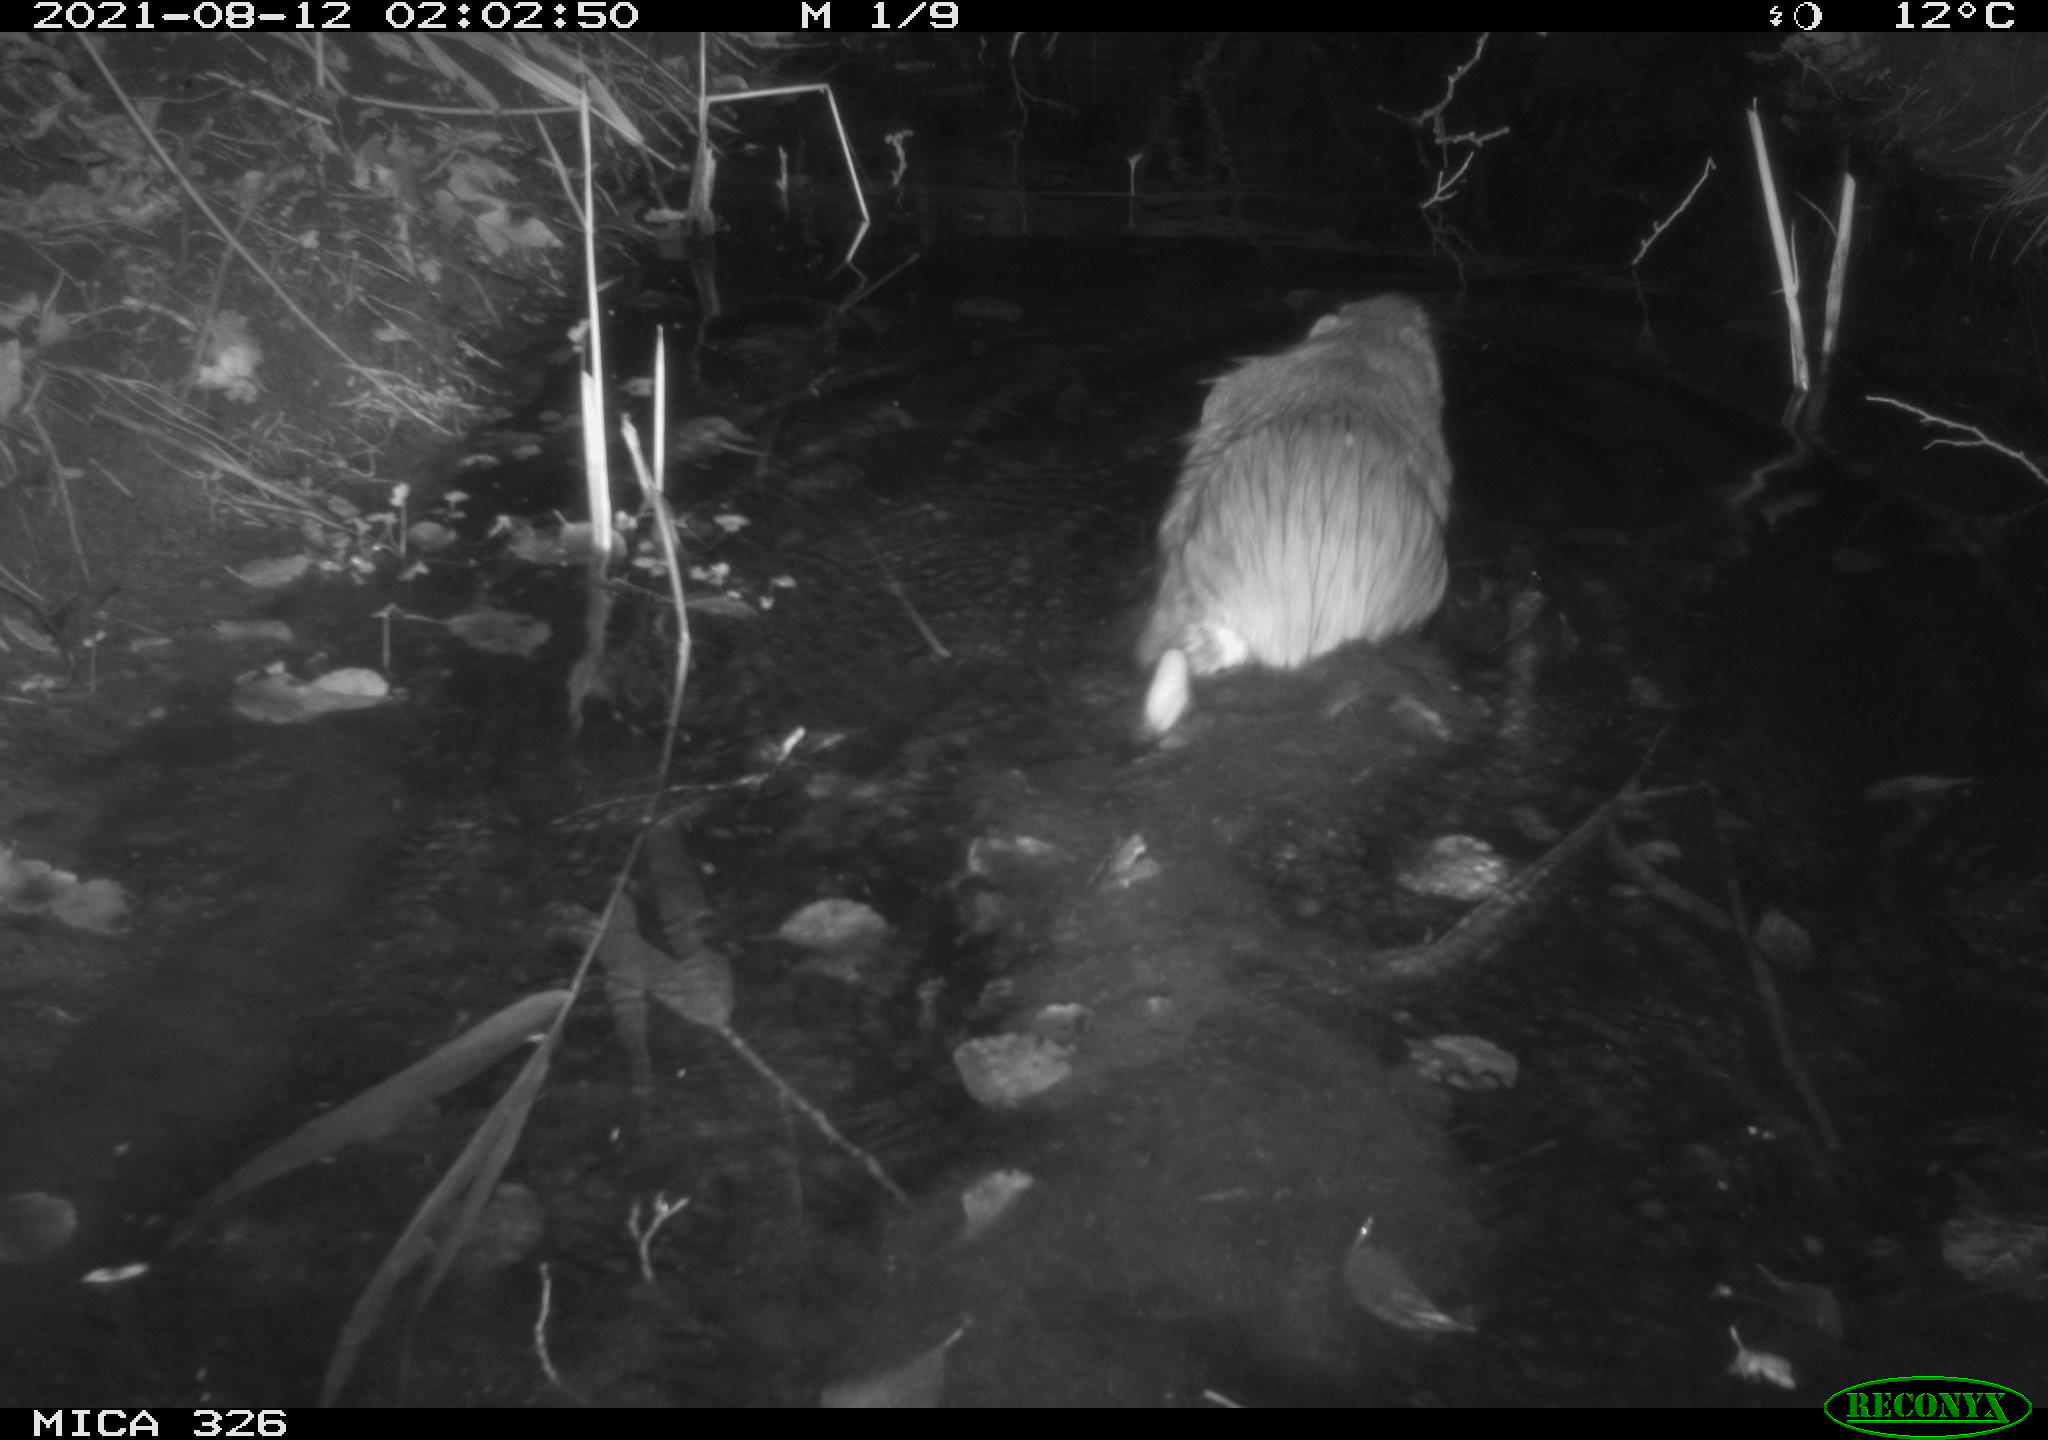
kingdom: Animalia
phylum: Chordata
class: Mammalia
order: Rodentia
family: Myocastoridae
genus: Myocastor
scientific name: Myocastor coypus
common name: Coypu
